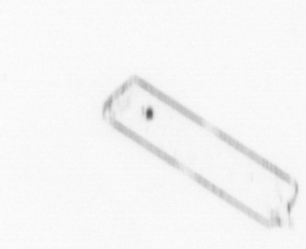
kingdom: Chromista
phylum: Ochrophyta
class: Bacillariophyceae
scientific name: Bacillariophyceae
